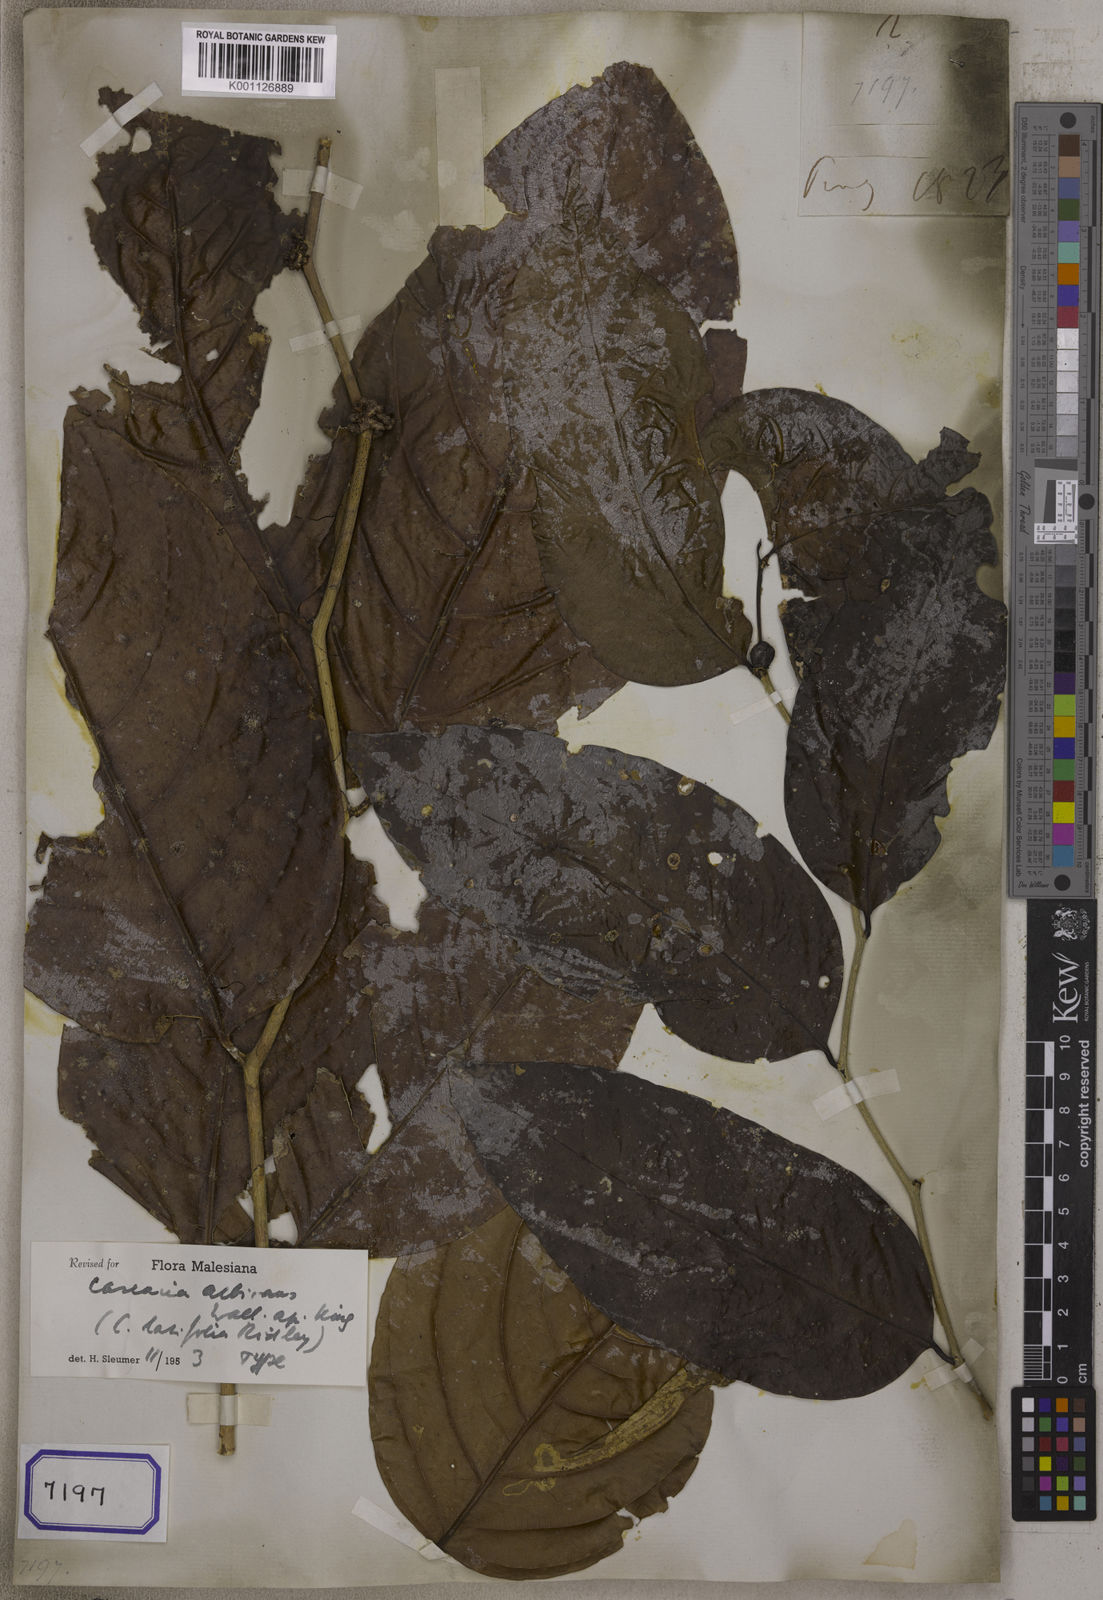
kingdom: Plantae
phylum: Tracheophyta
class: Magnoliopsida
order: Malpighiales
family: Salicaceae
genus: Casearia
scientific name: Casearia
